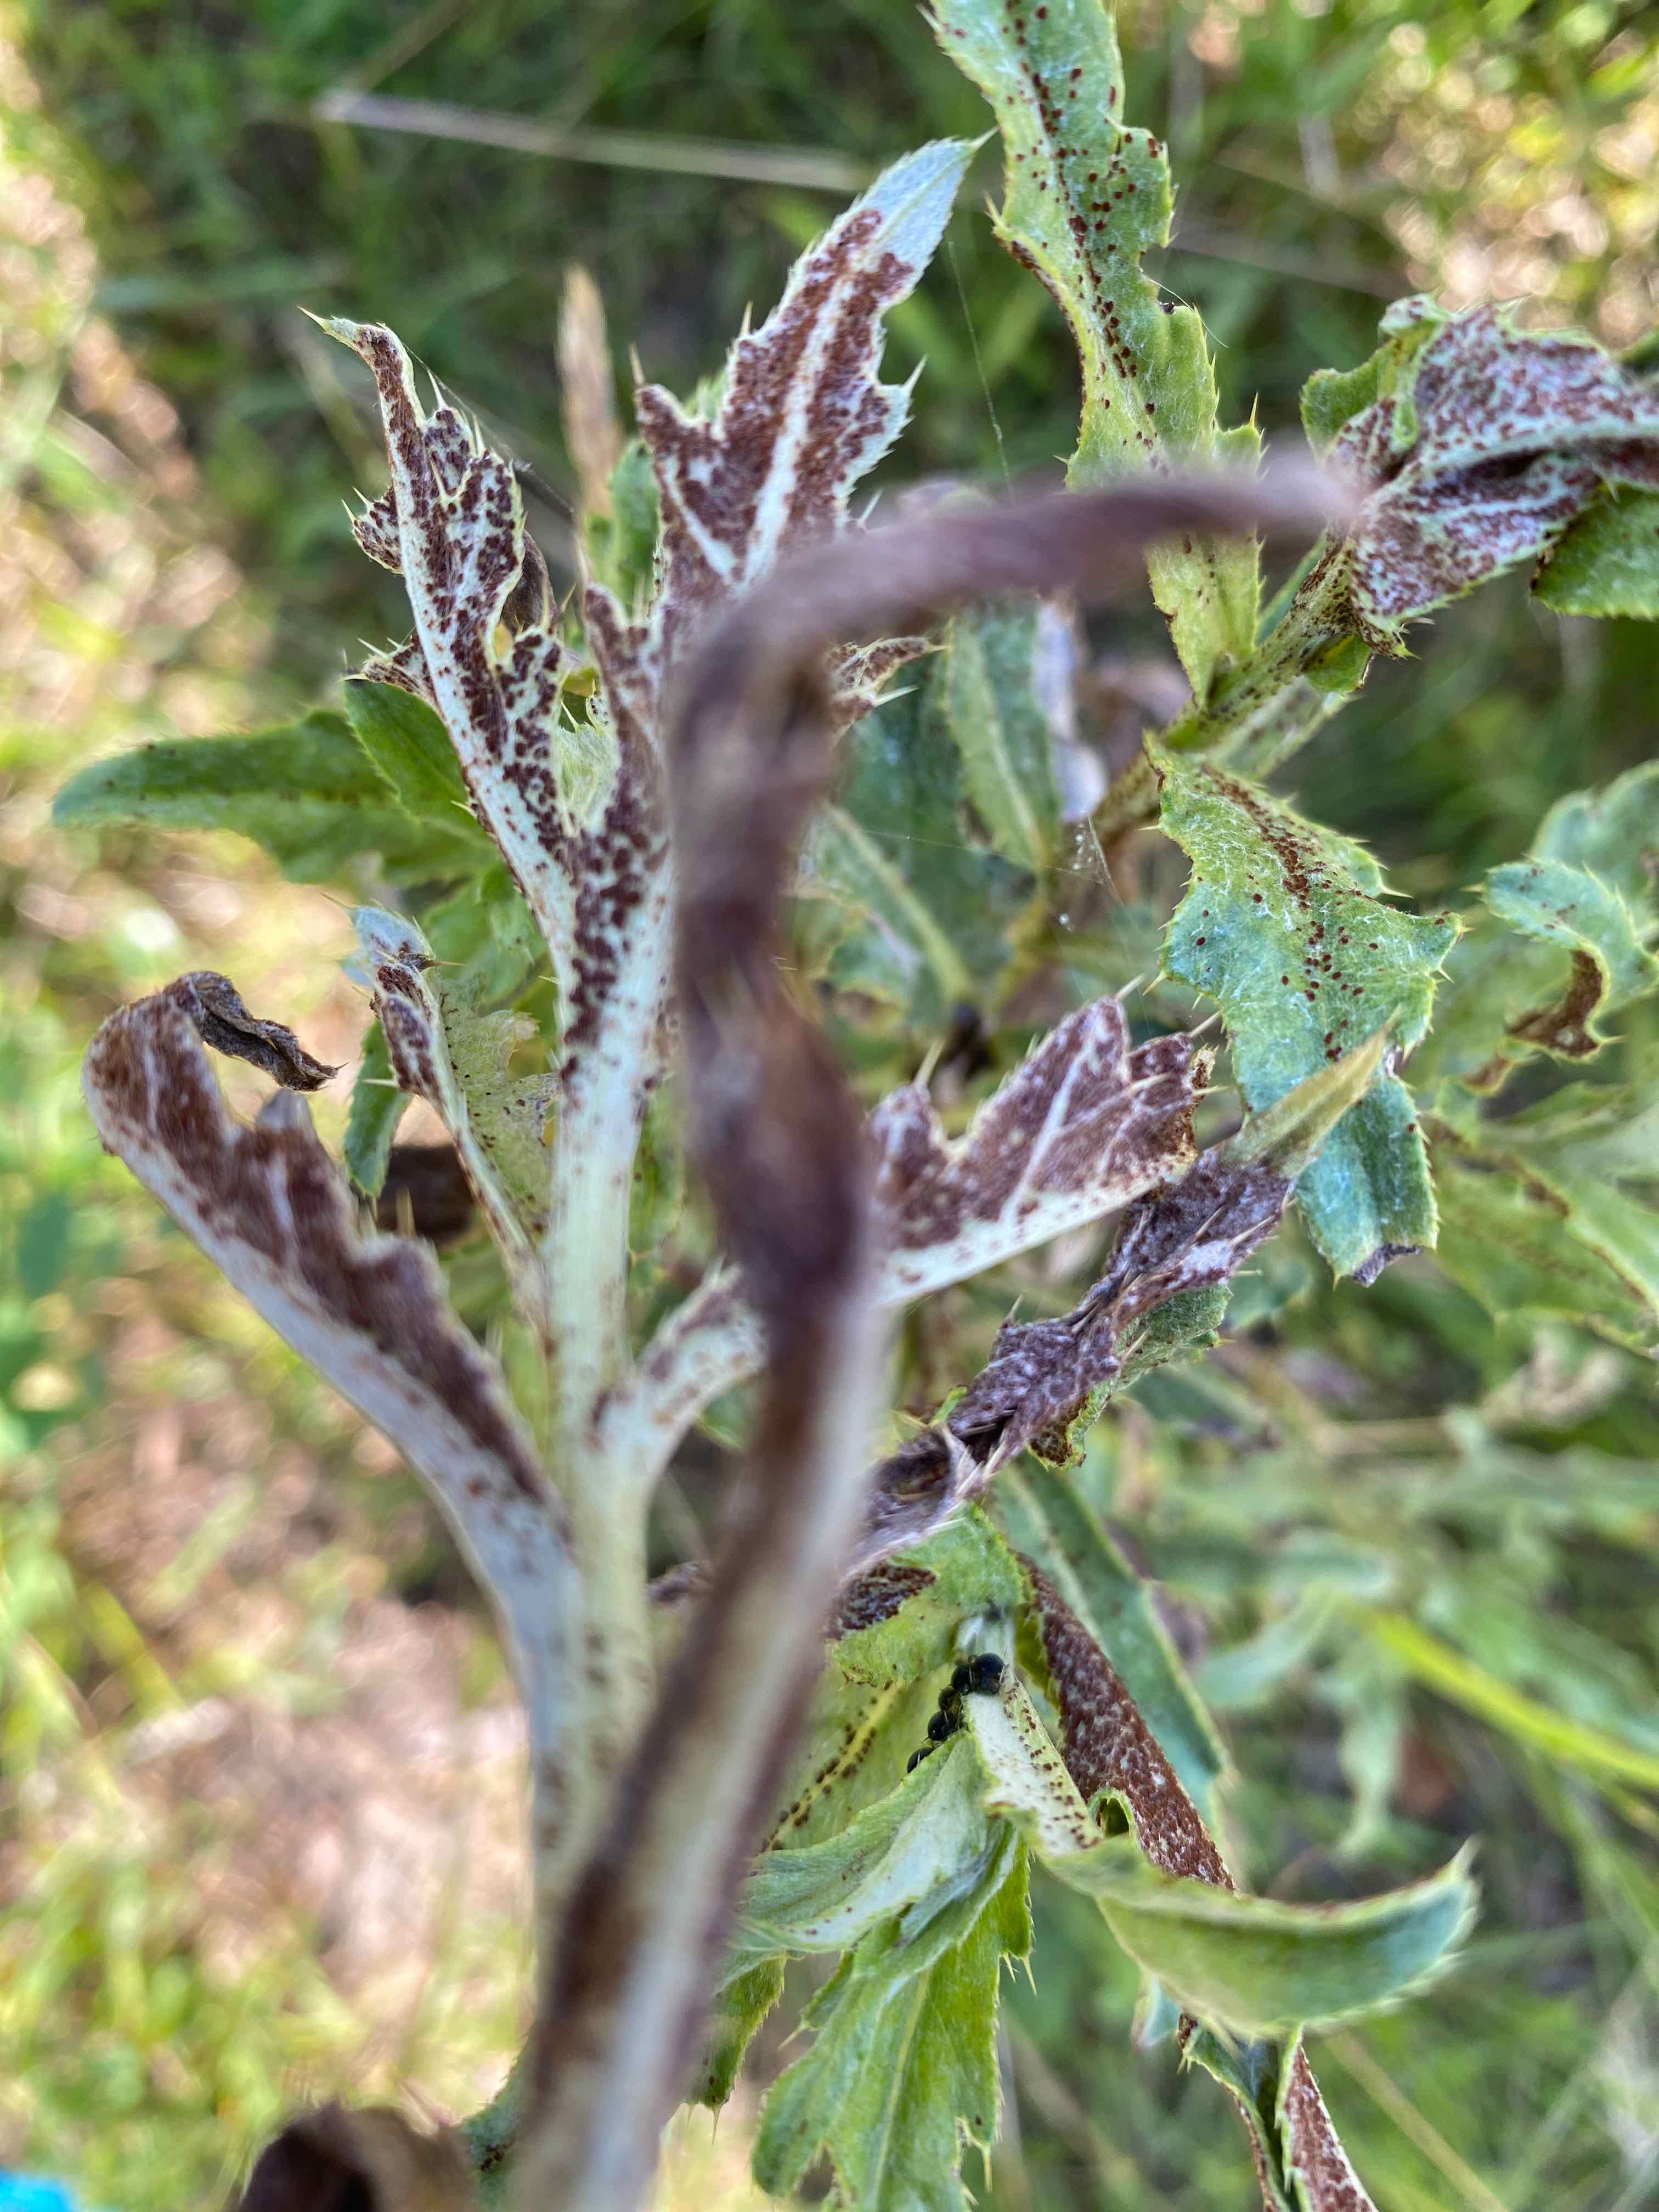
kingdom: Fungi
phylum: Basidiomycota
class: Pucciniomycetes
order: Pucciniales
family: Pucciniaceae
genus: Puccinia
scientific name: Puccinia suaveolens
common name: tidsel-tvecellerust
